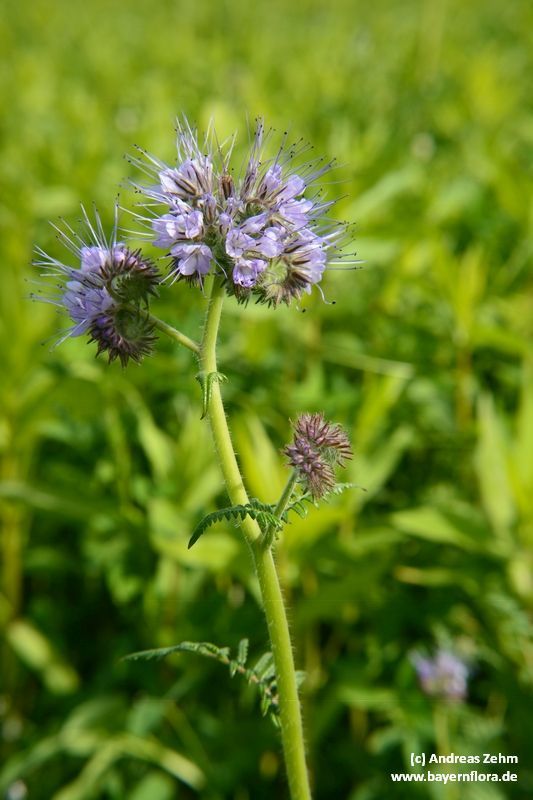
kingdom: Plantae
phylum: Tracheophyta
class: Magnoliopsida
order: Boraginales
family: Hydrophyllaceae
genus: Phacelia
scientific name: Phacelia tanacetifolia
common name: Phacelia
